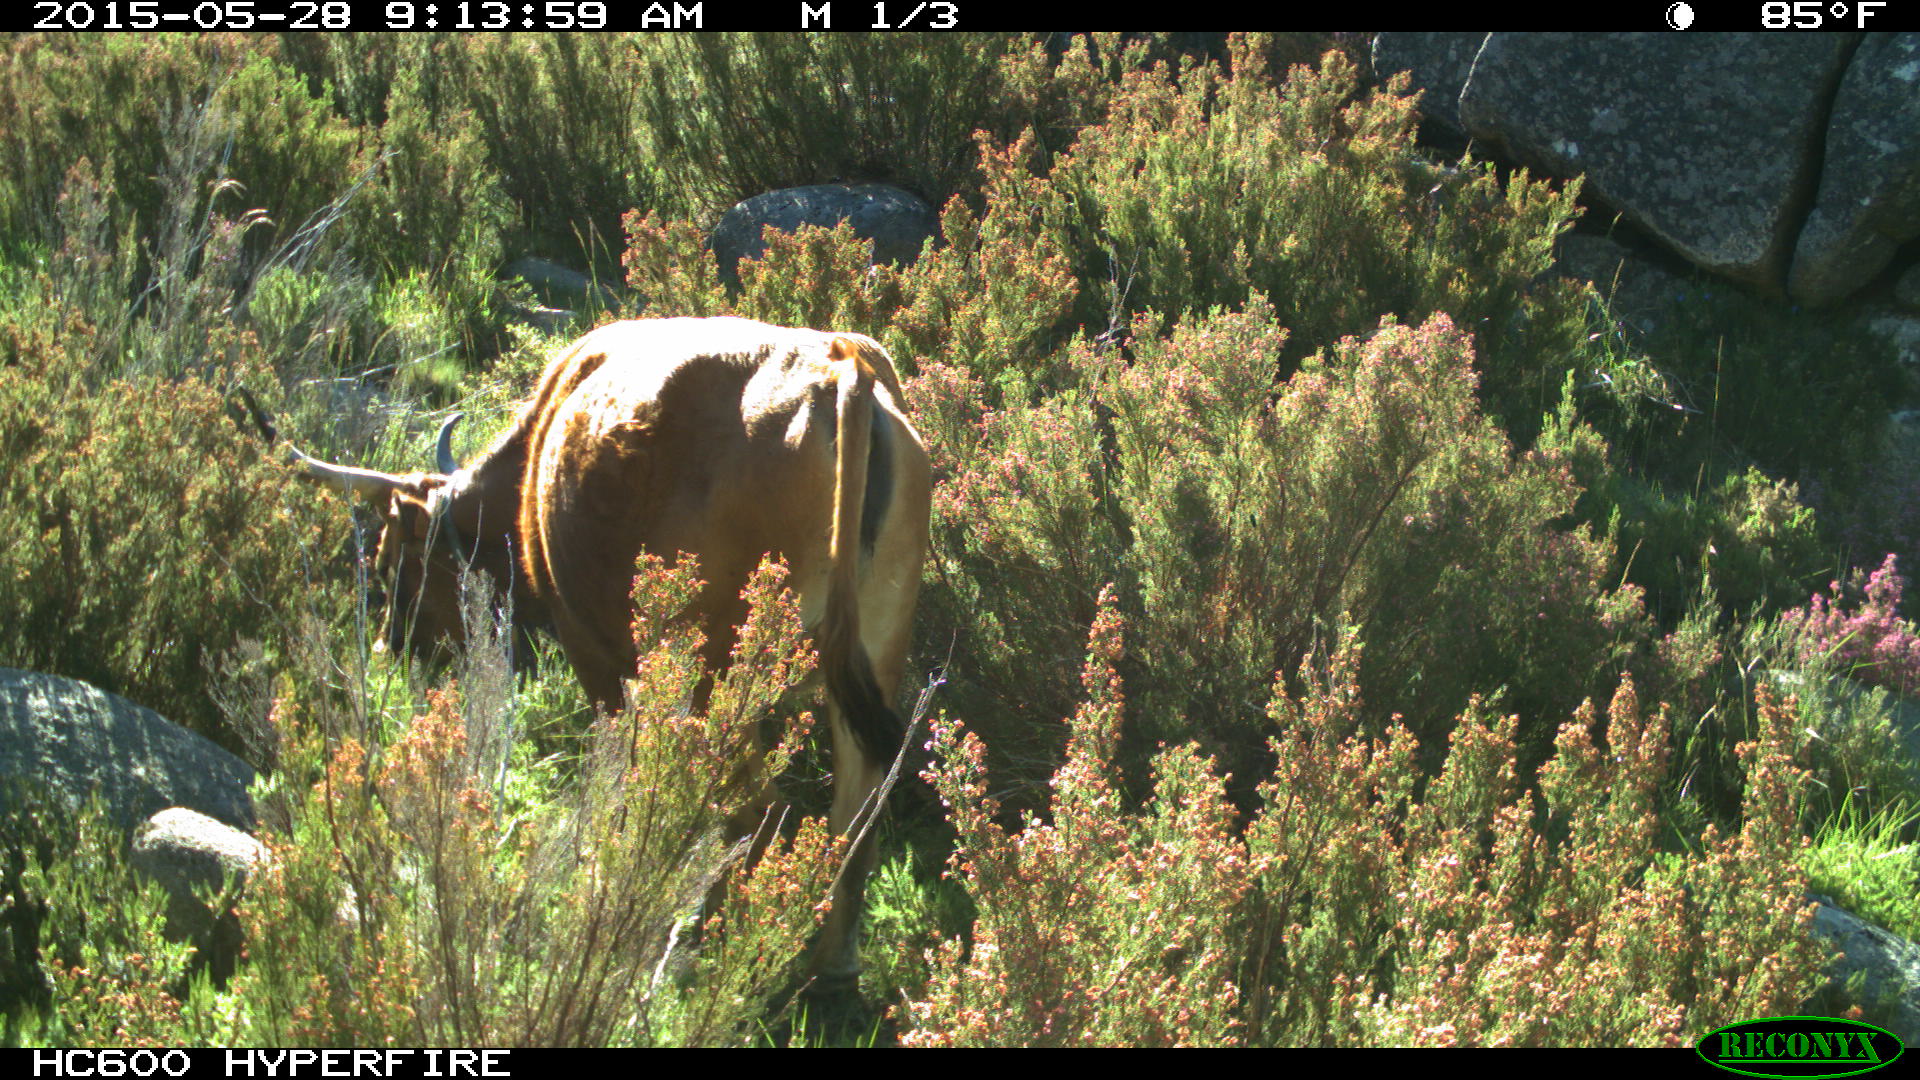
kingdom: Animalia
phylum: Chordata
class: Mammalia
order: Artiodactyla
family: Bovidae
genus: Bos
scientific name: Bos taurus
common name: Domesticated cattle
